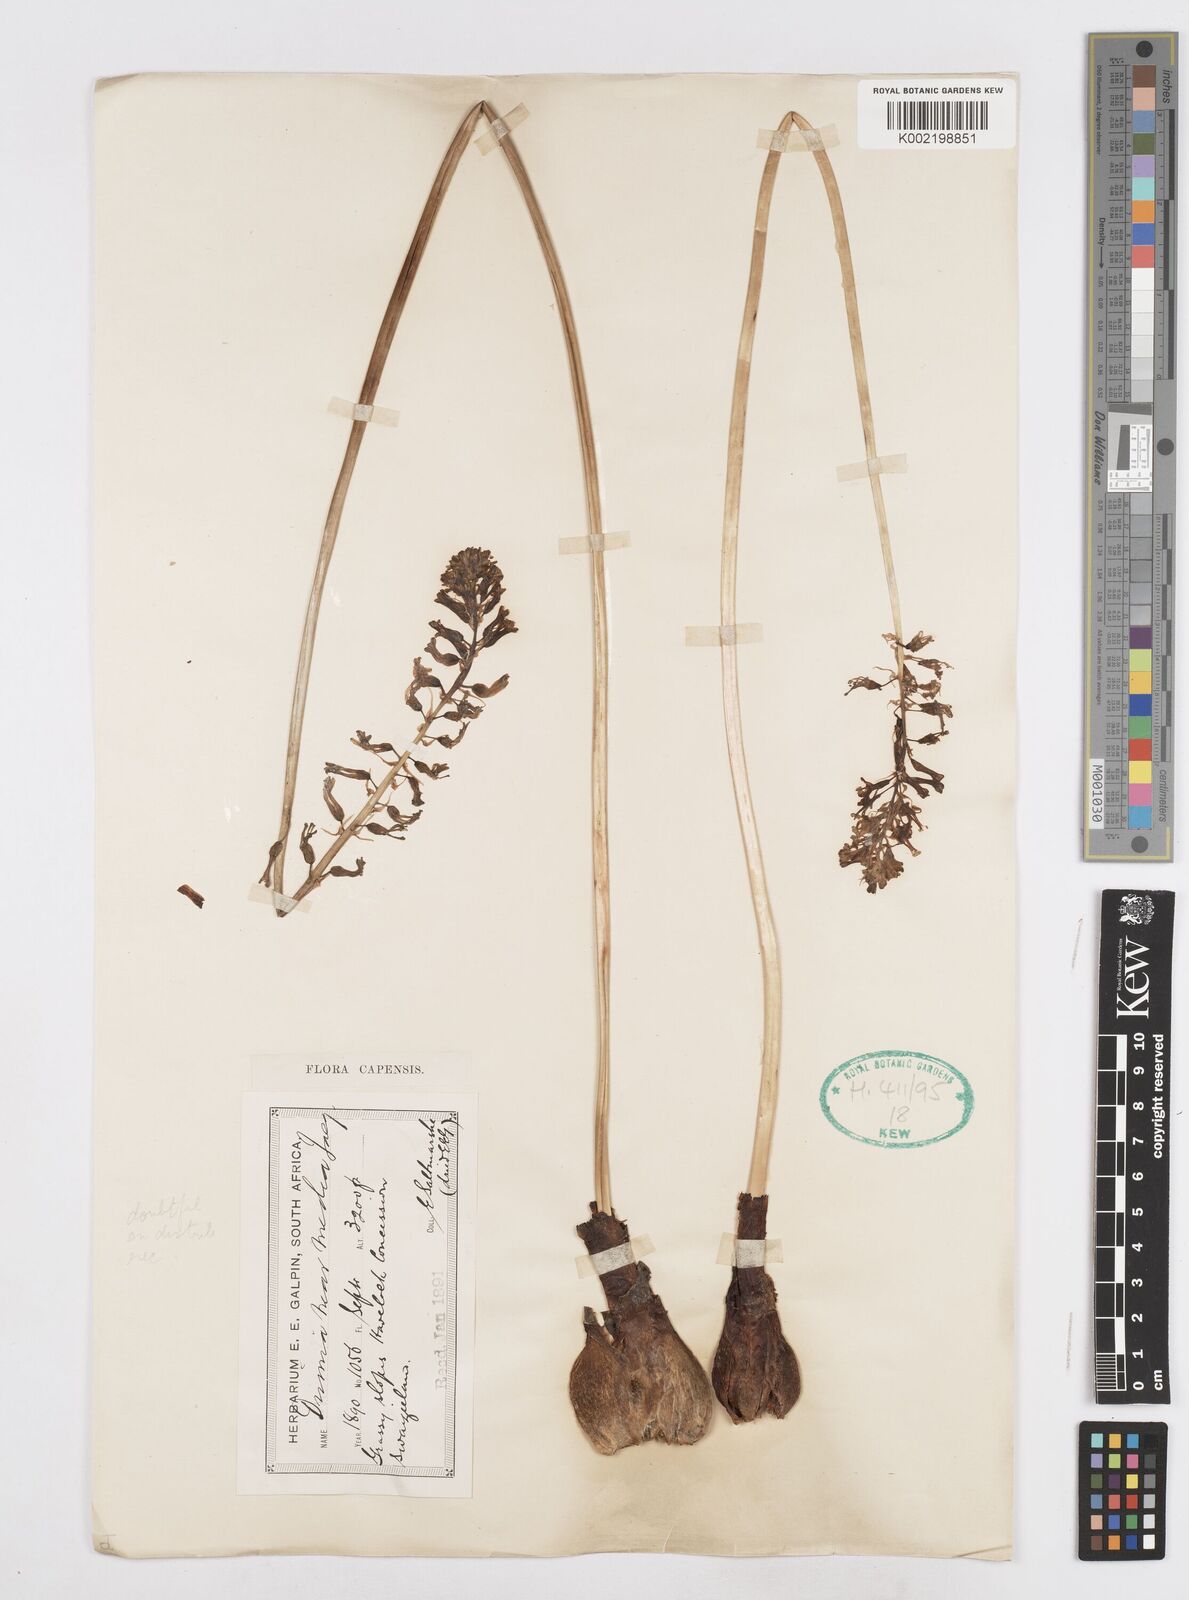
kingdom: Plantae
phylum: Tracheophyta
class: Liliopsida
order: Asparagales
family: Asparagaceae
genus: Drimia
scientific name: Drimia media
